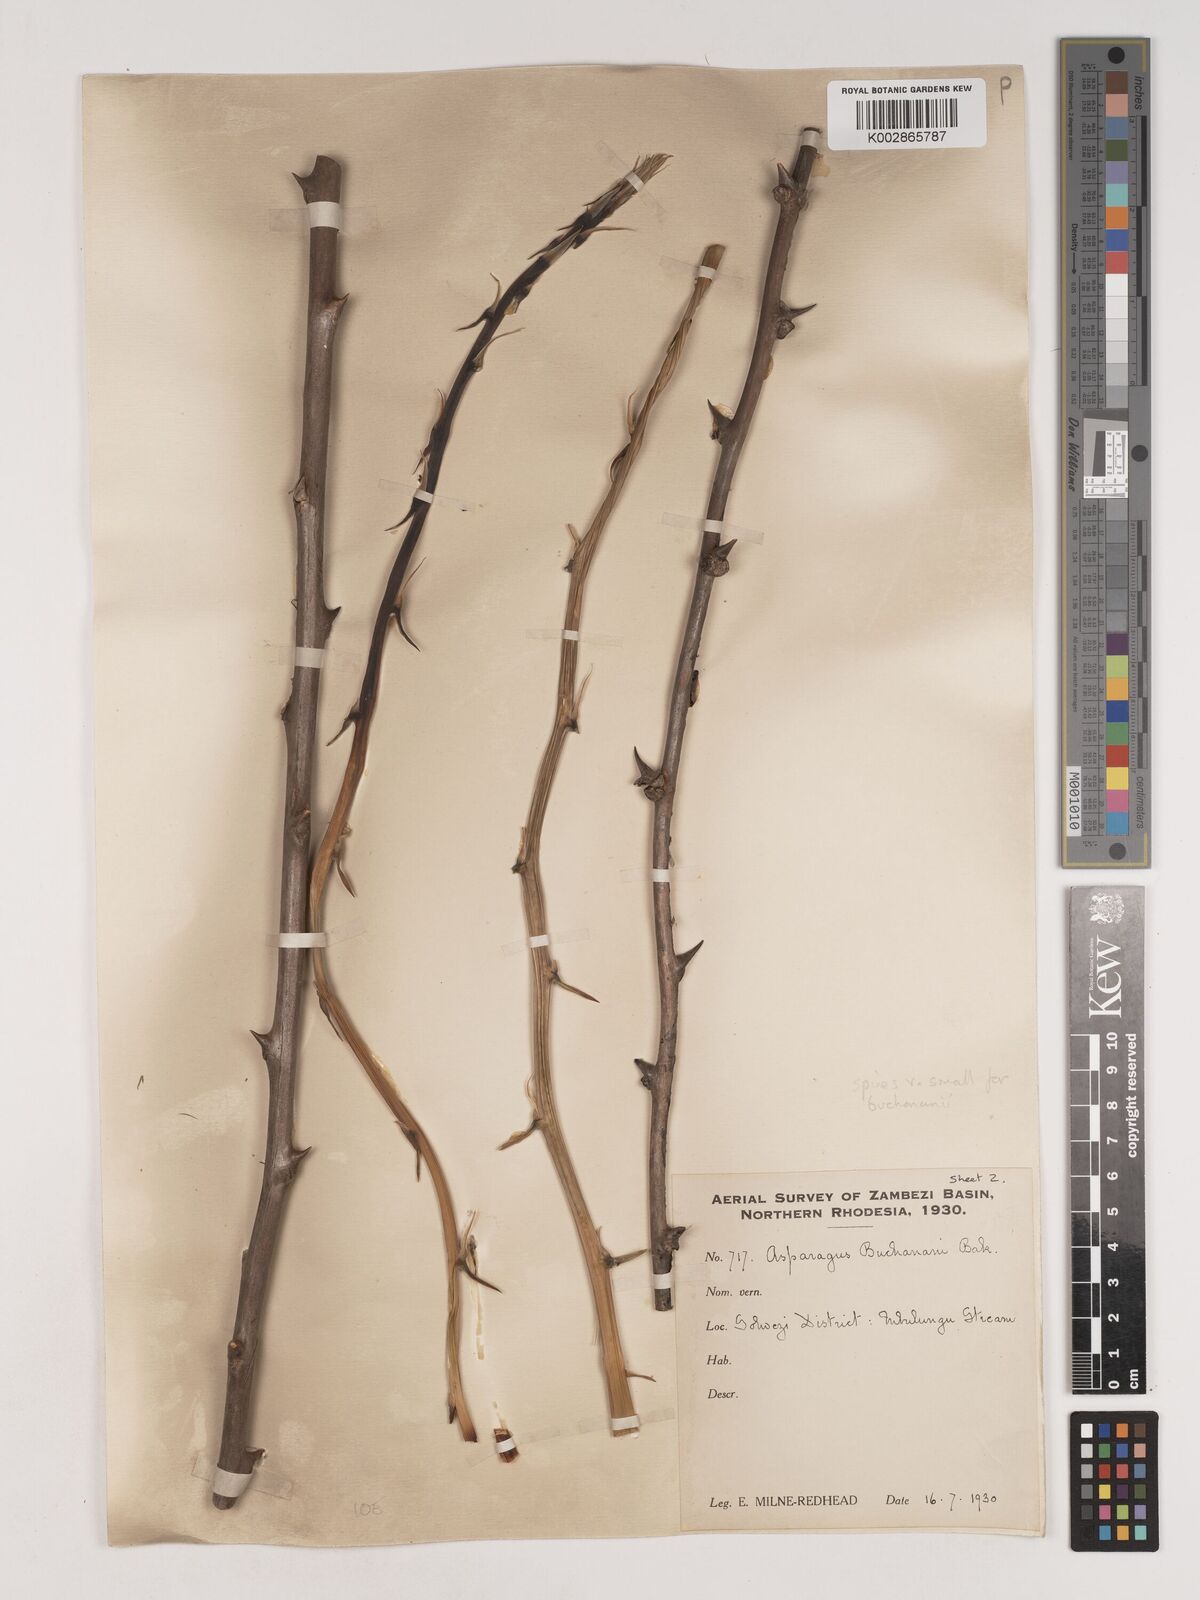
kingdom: Plantae
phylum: Tracheophyta
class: Liliopsida
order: Asparagales
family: Asparagaceae
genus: Asparagus
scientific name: Asparagus buchananii
